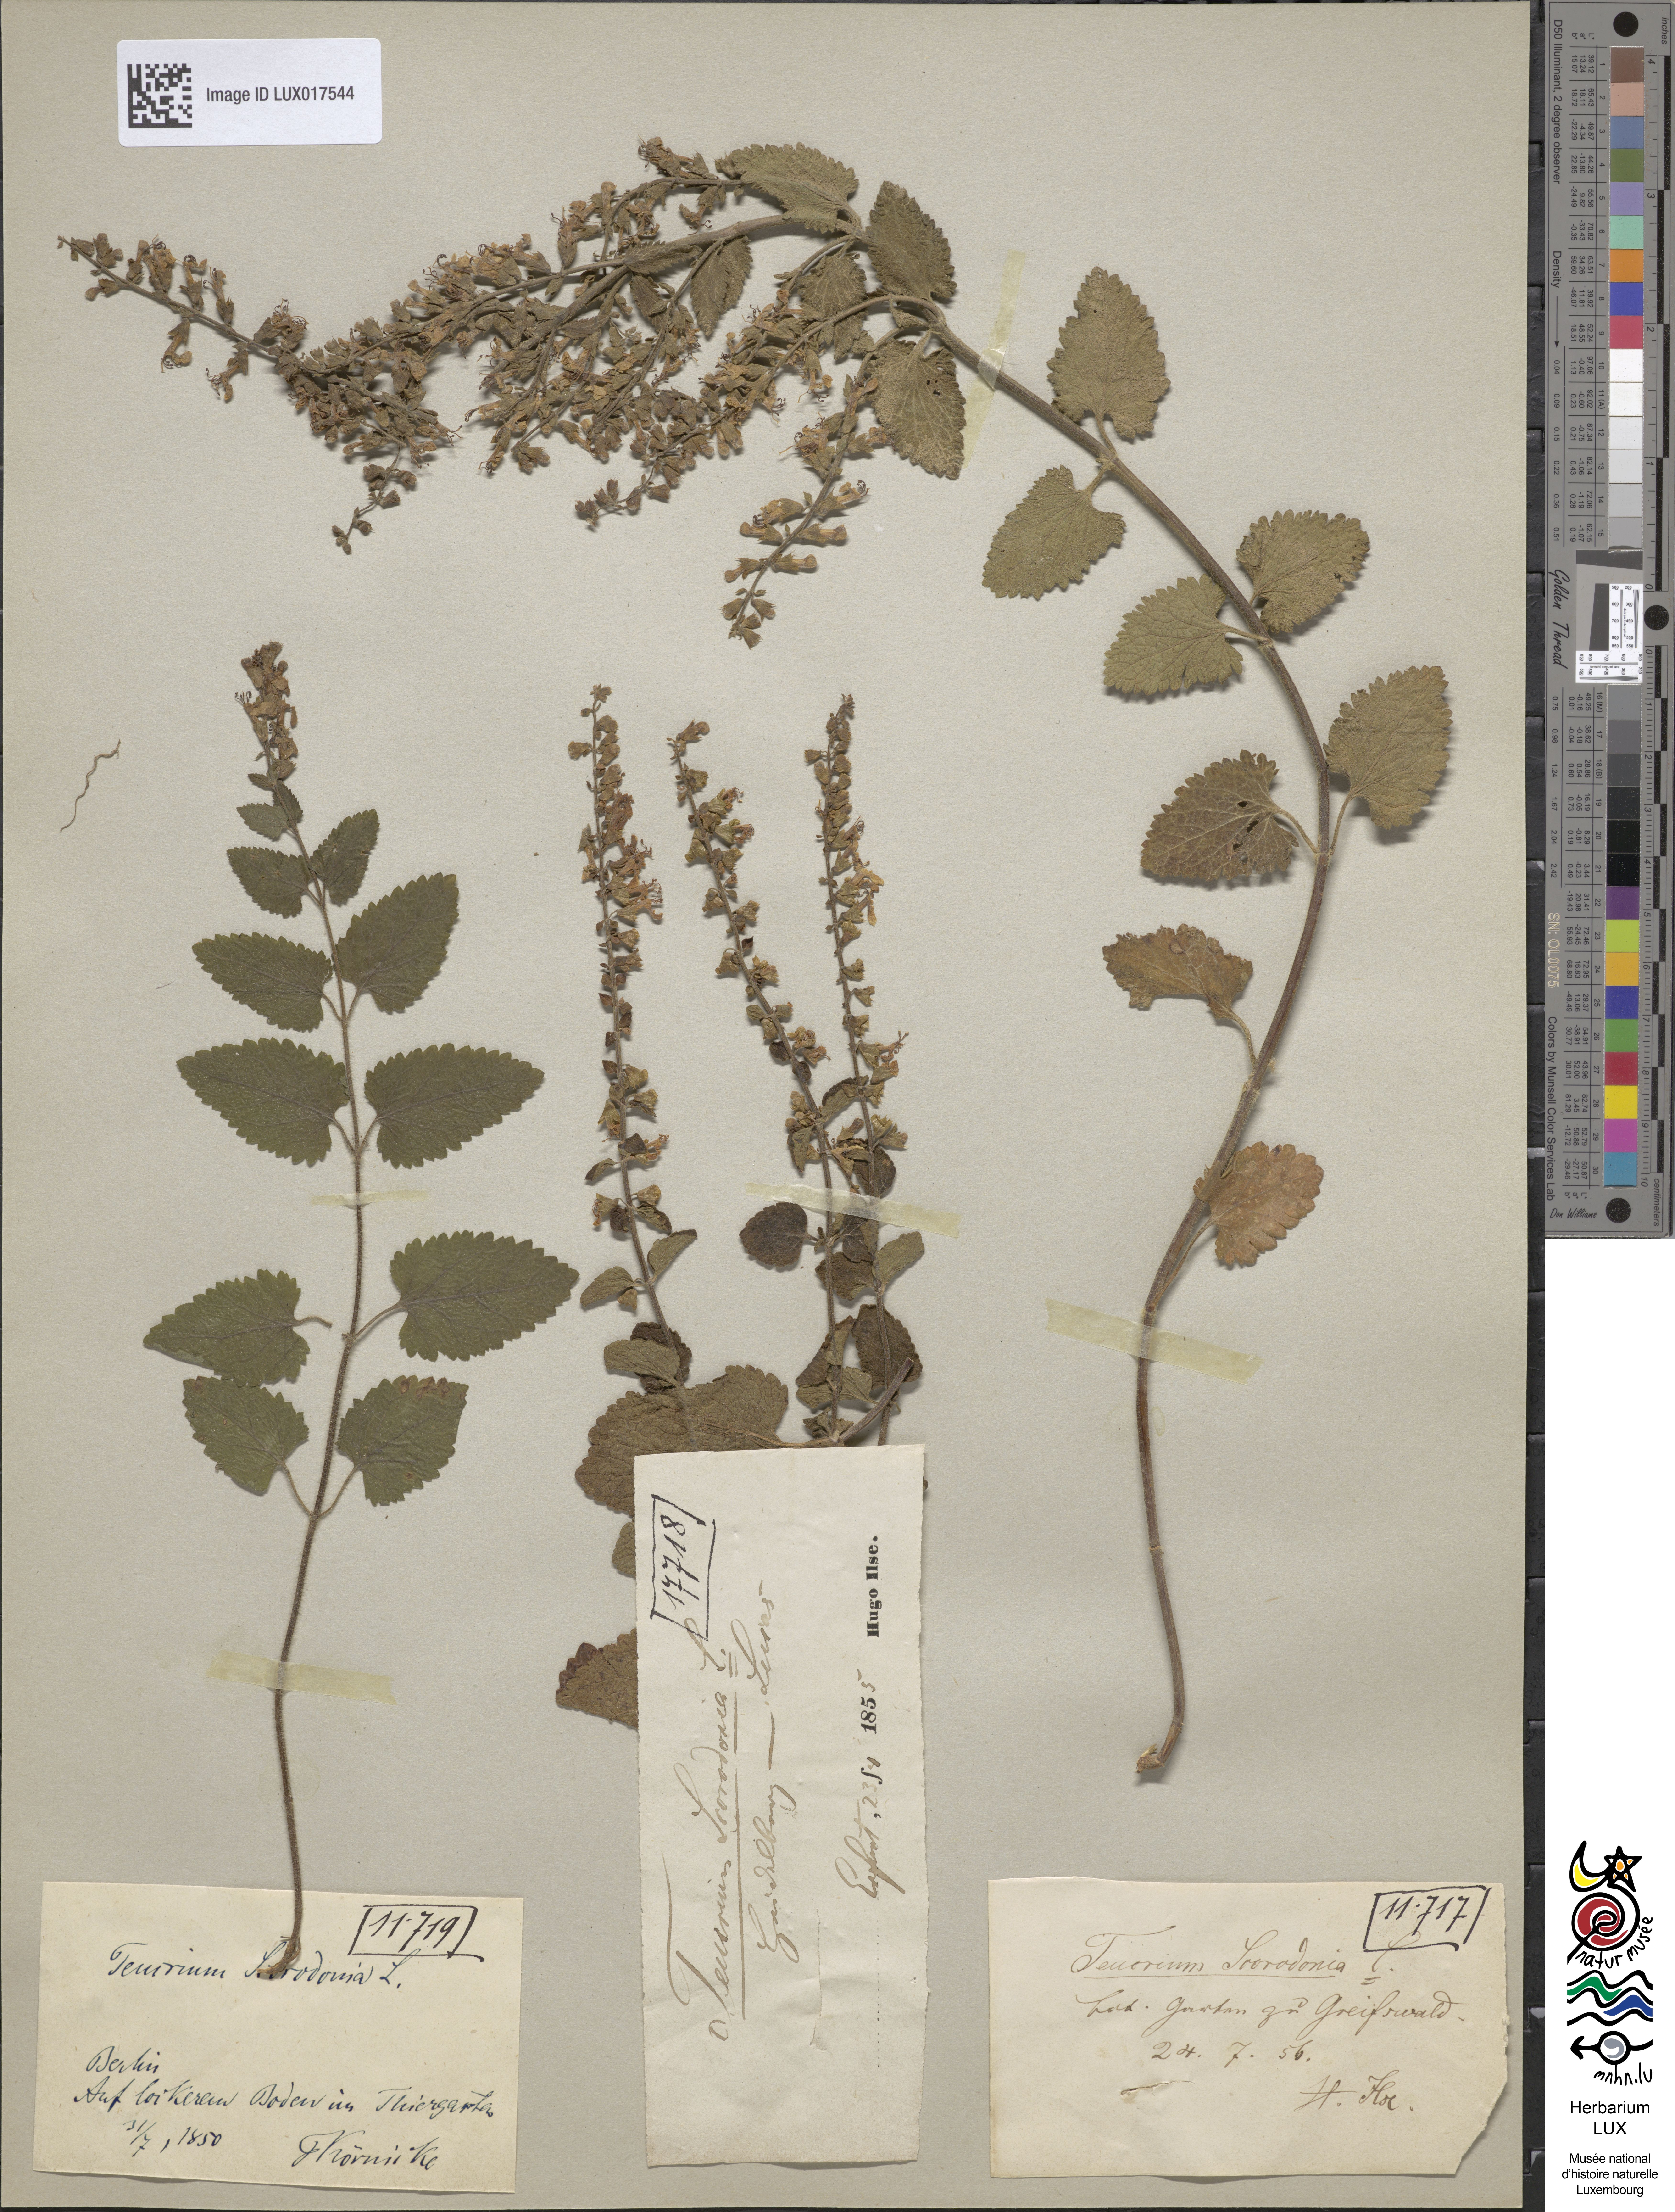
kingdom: Plantae
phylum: Tracheophyta
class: Magnoliopsida
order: Lamiales
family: Lamiaceae
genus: Teucrium
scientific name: Teucrium scorodonia
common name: Woodland germander
